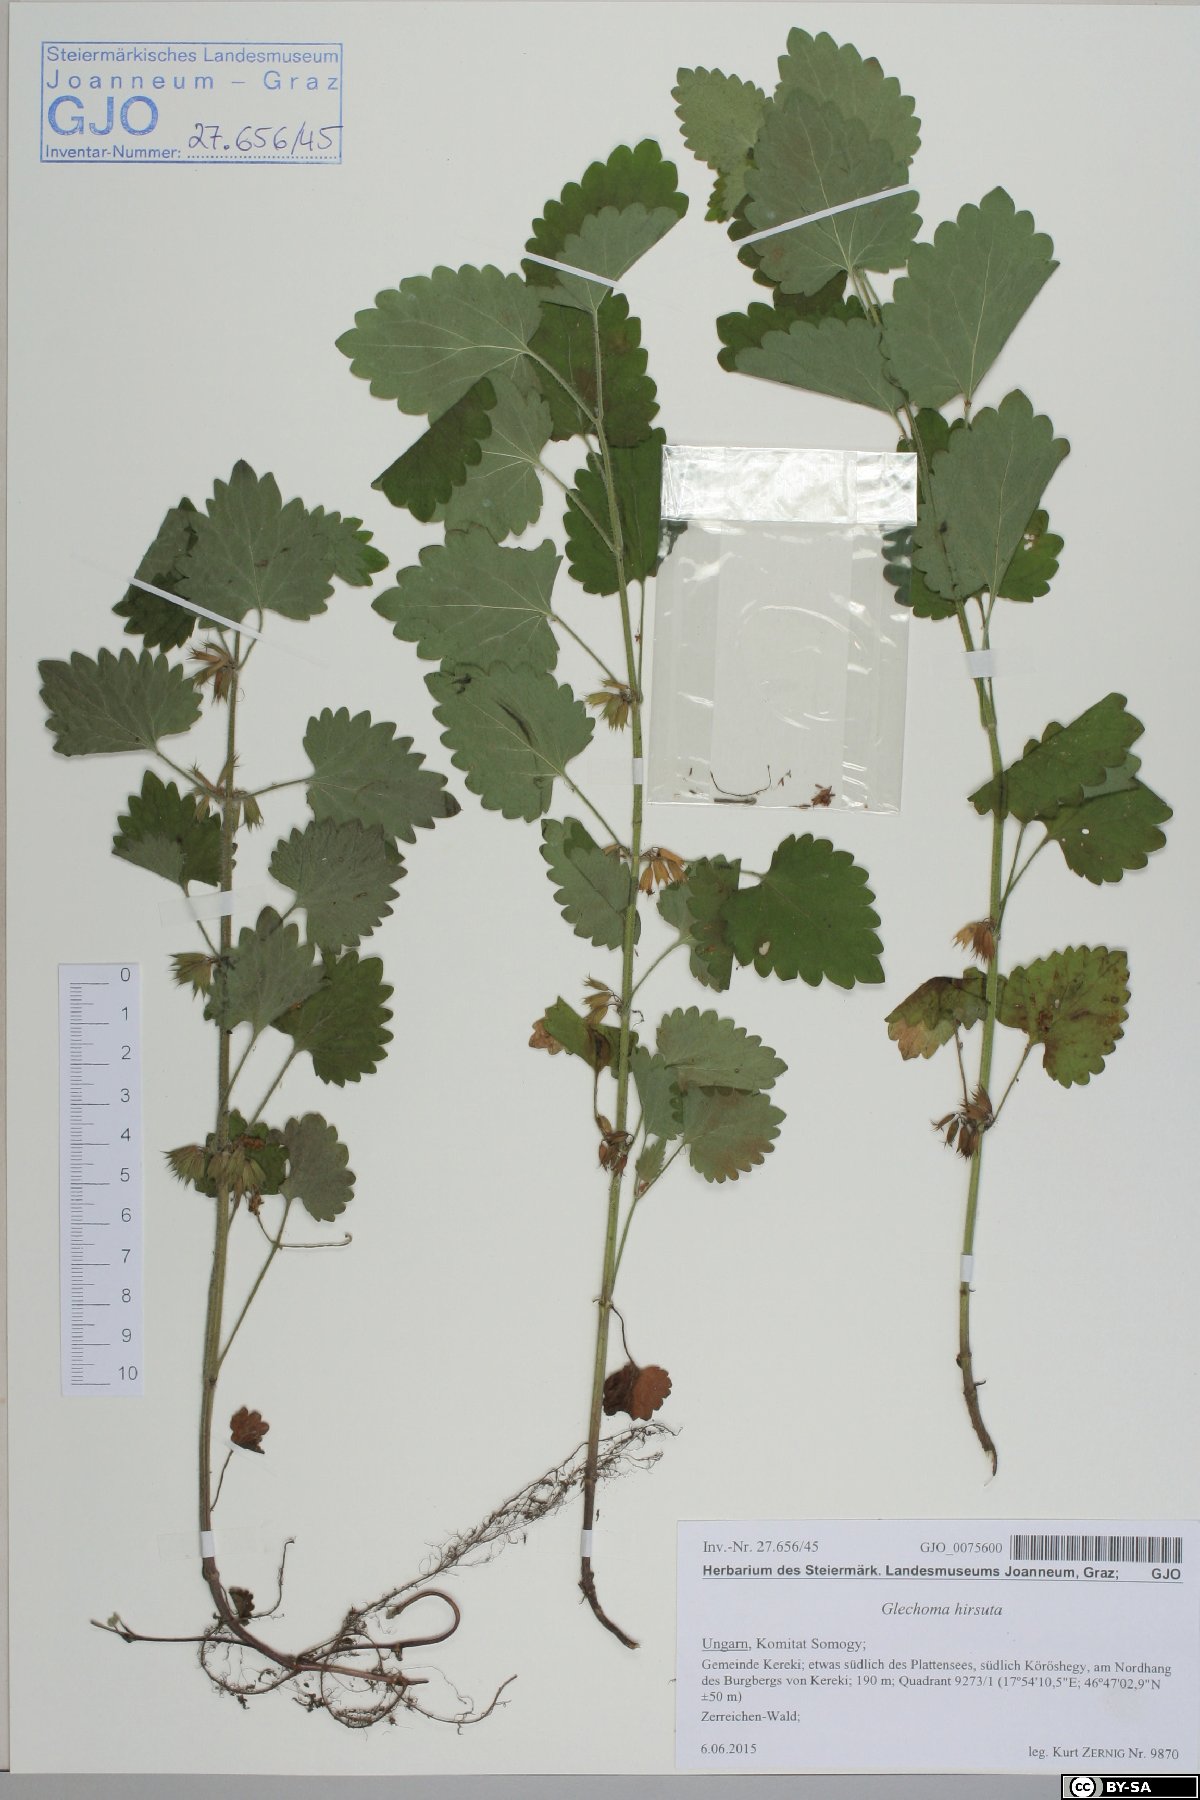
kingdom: Plantae
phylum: Tracheophyta
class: Magnoliopsida
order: Lamiales
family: Lamiaceae
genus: Glechoma
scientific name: Glechoma hirsuta
